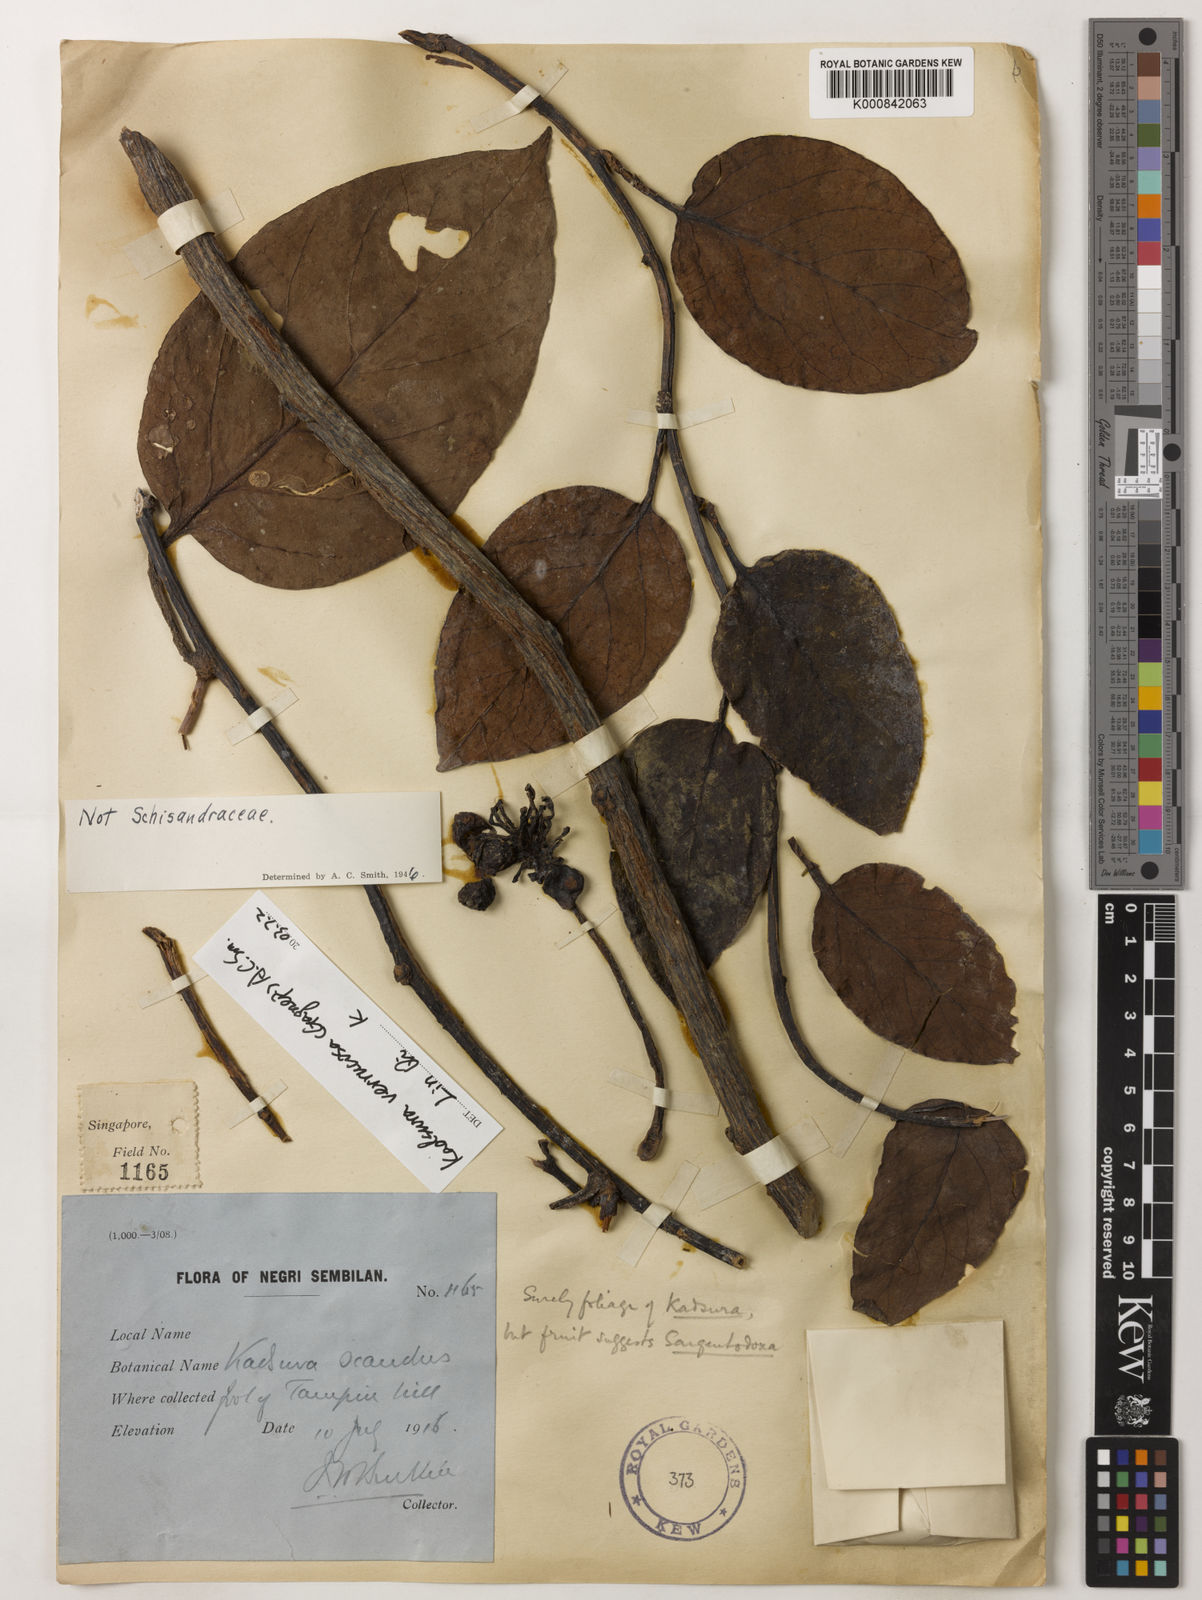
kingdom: Plantae
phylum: Tracheophyta
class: Magnoliopsida
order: Austrobaileyales
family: Schisandraceae
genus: Kadsura
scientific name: Kadsura verrucosa
